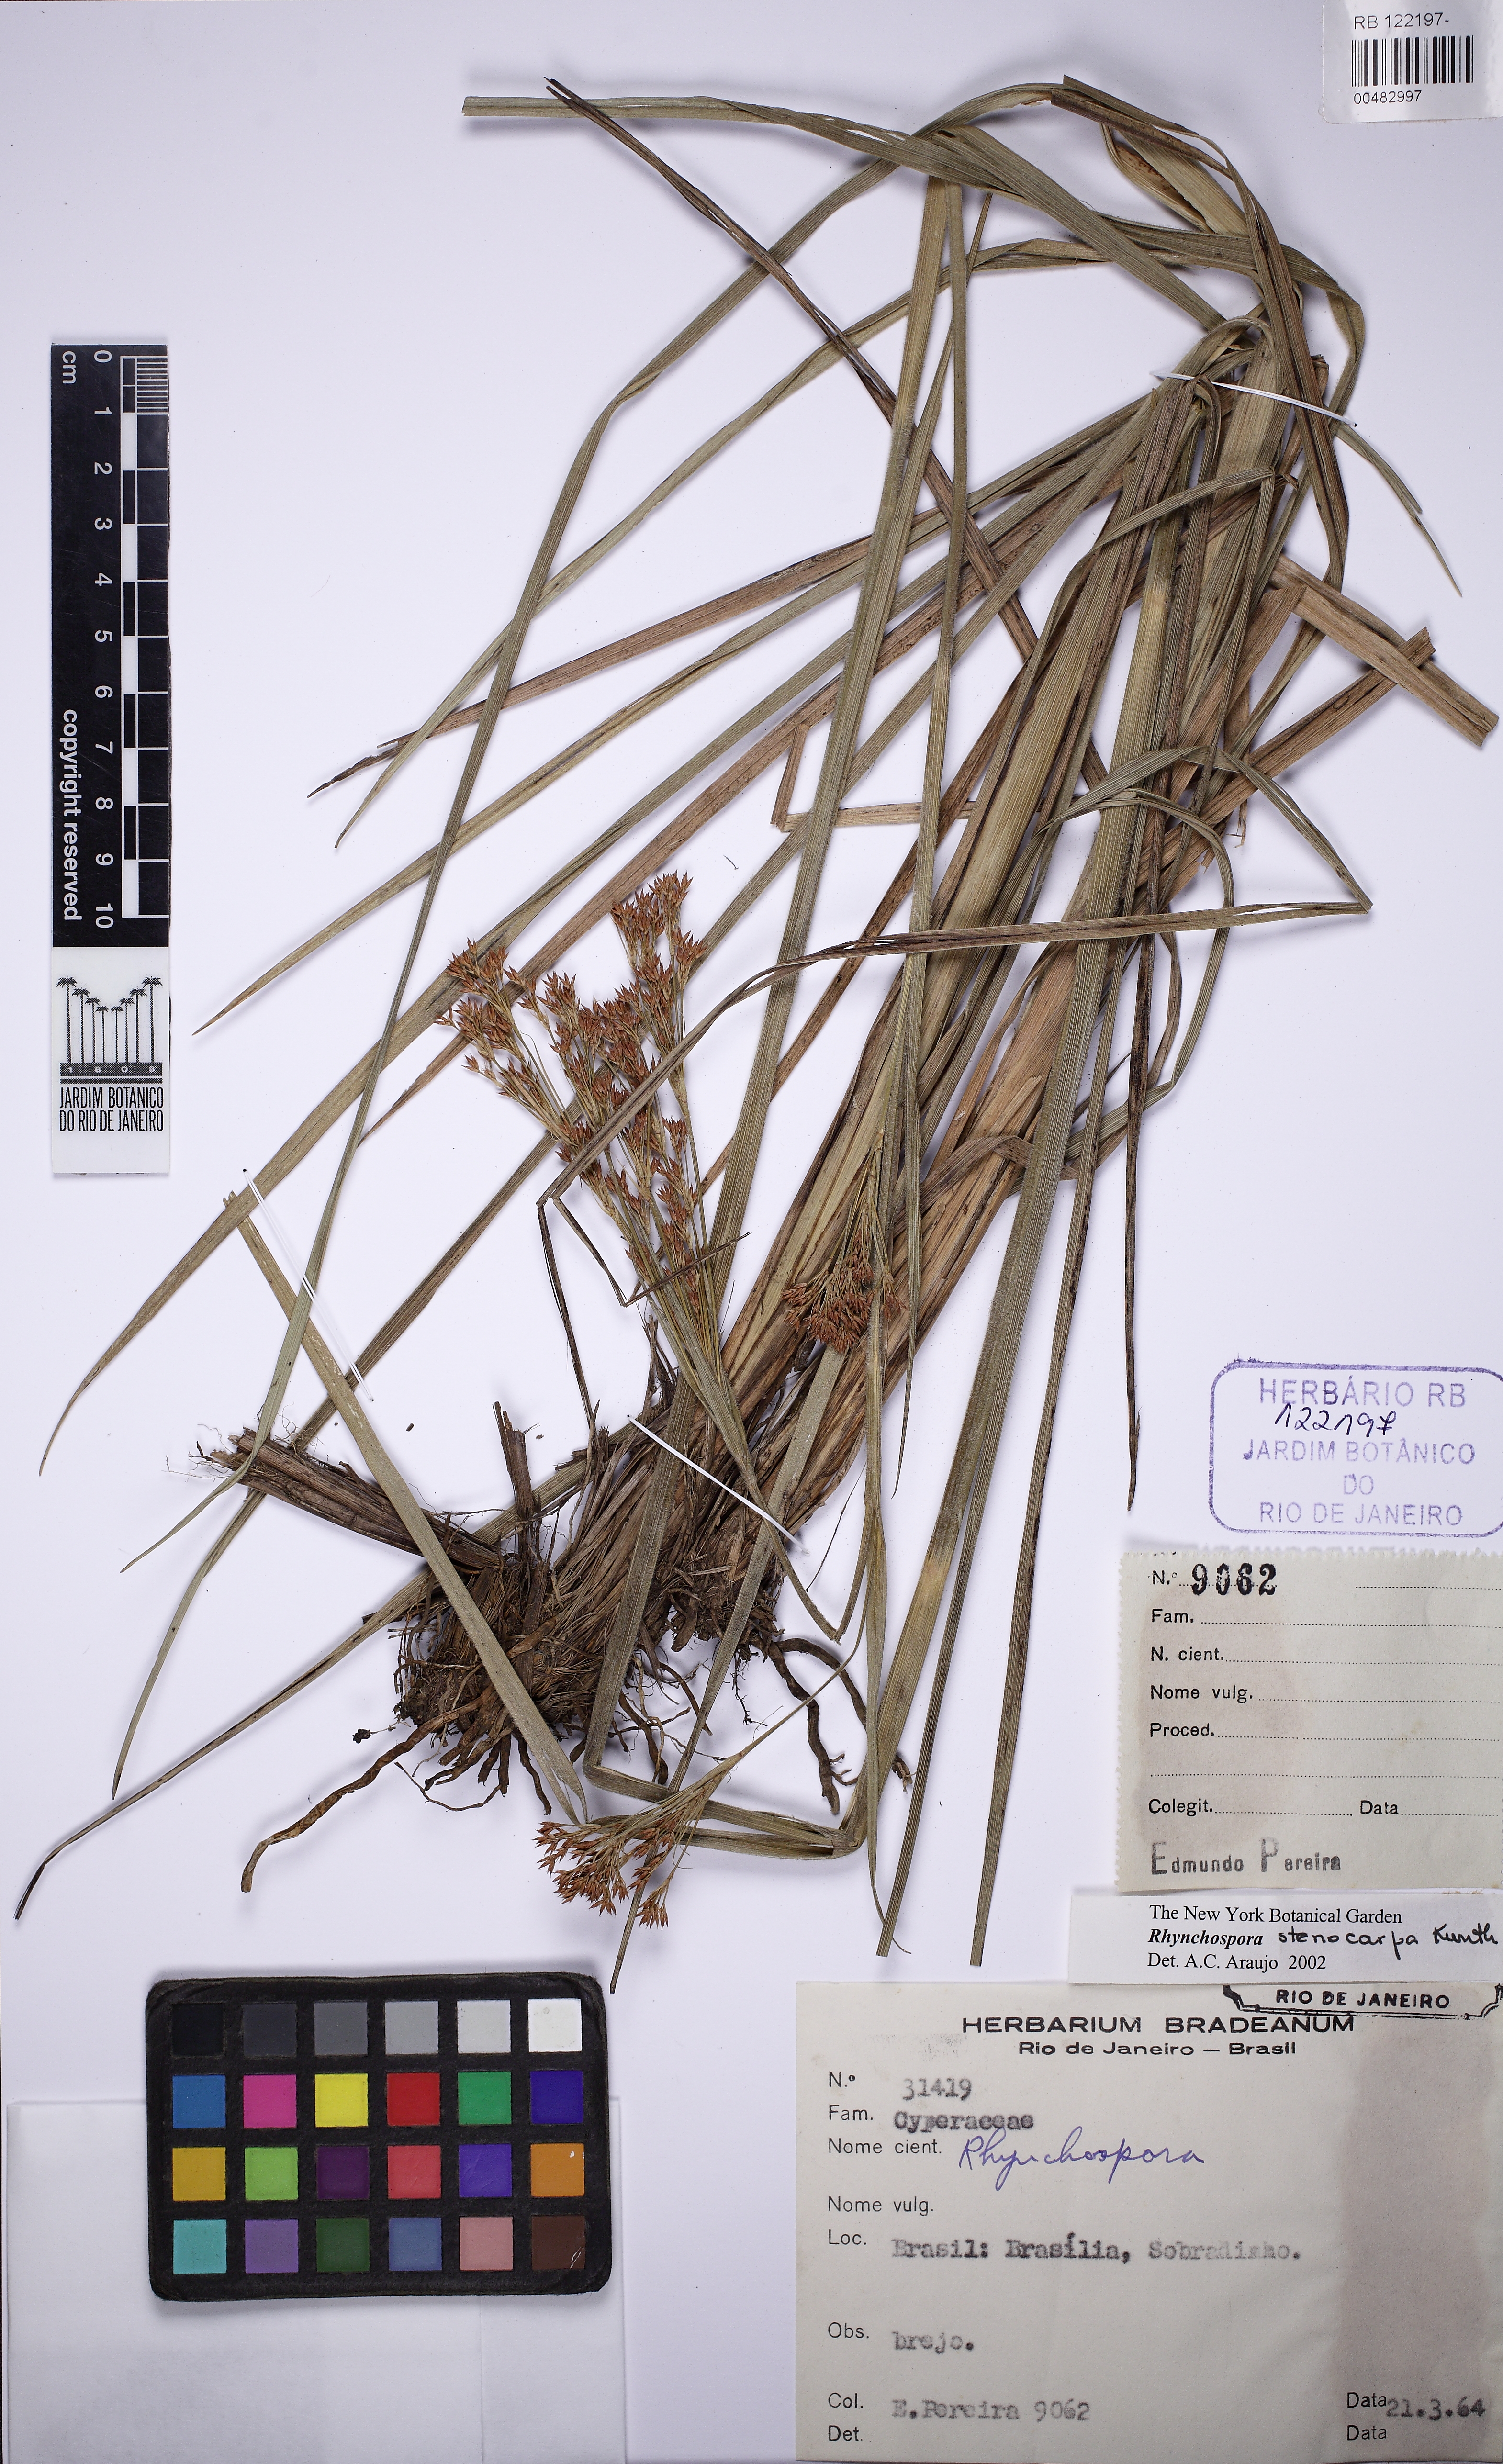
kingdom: Plantae
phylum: Tracheophyta
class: Liliopsida
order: Poales
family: Cyperaceae
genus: Rhynchospora
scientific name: Rhynchospora velutina
